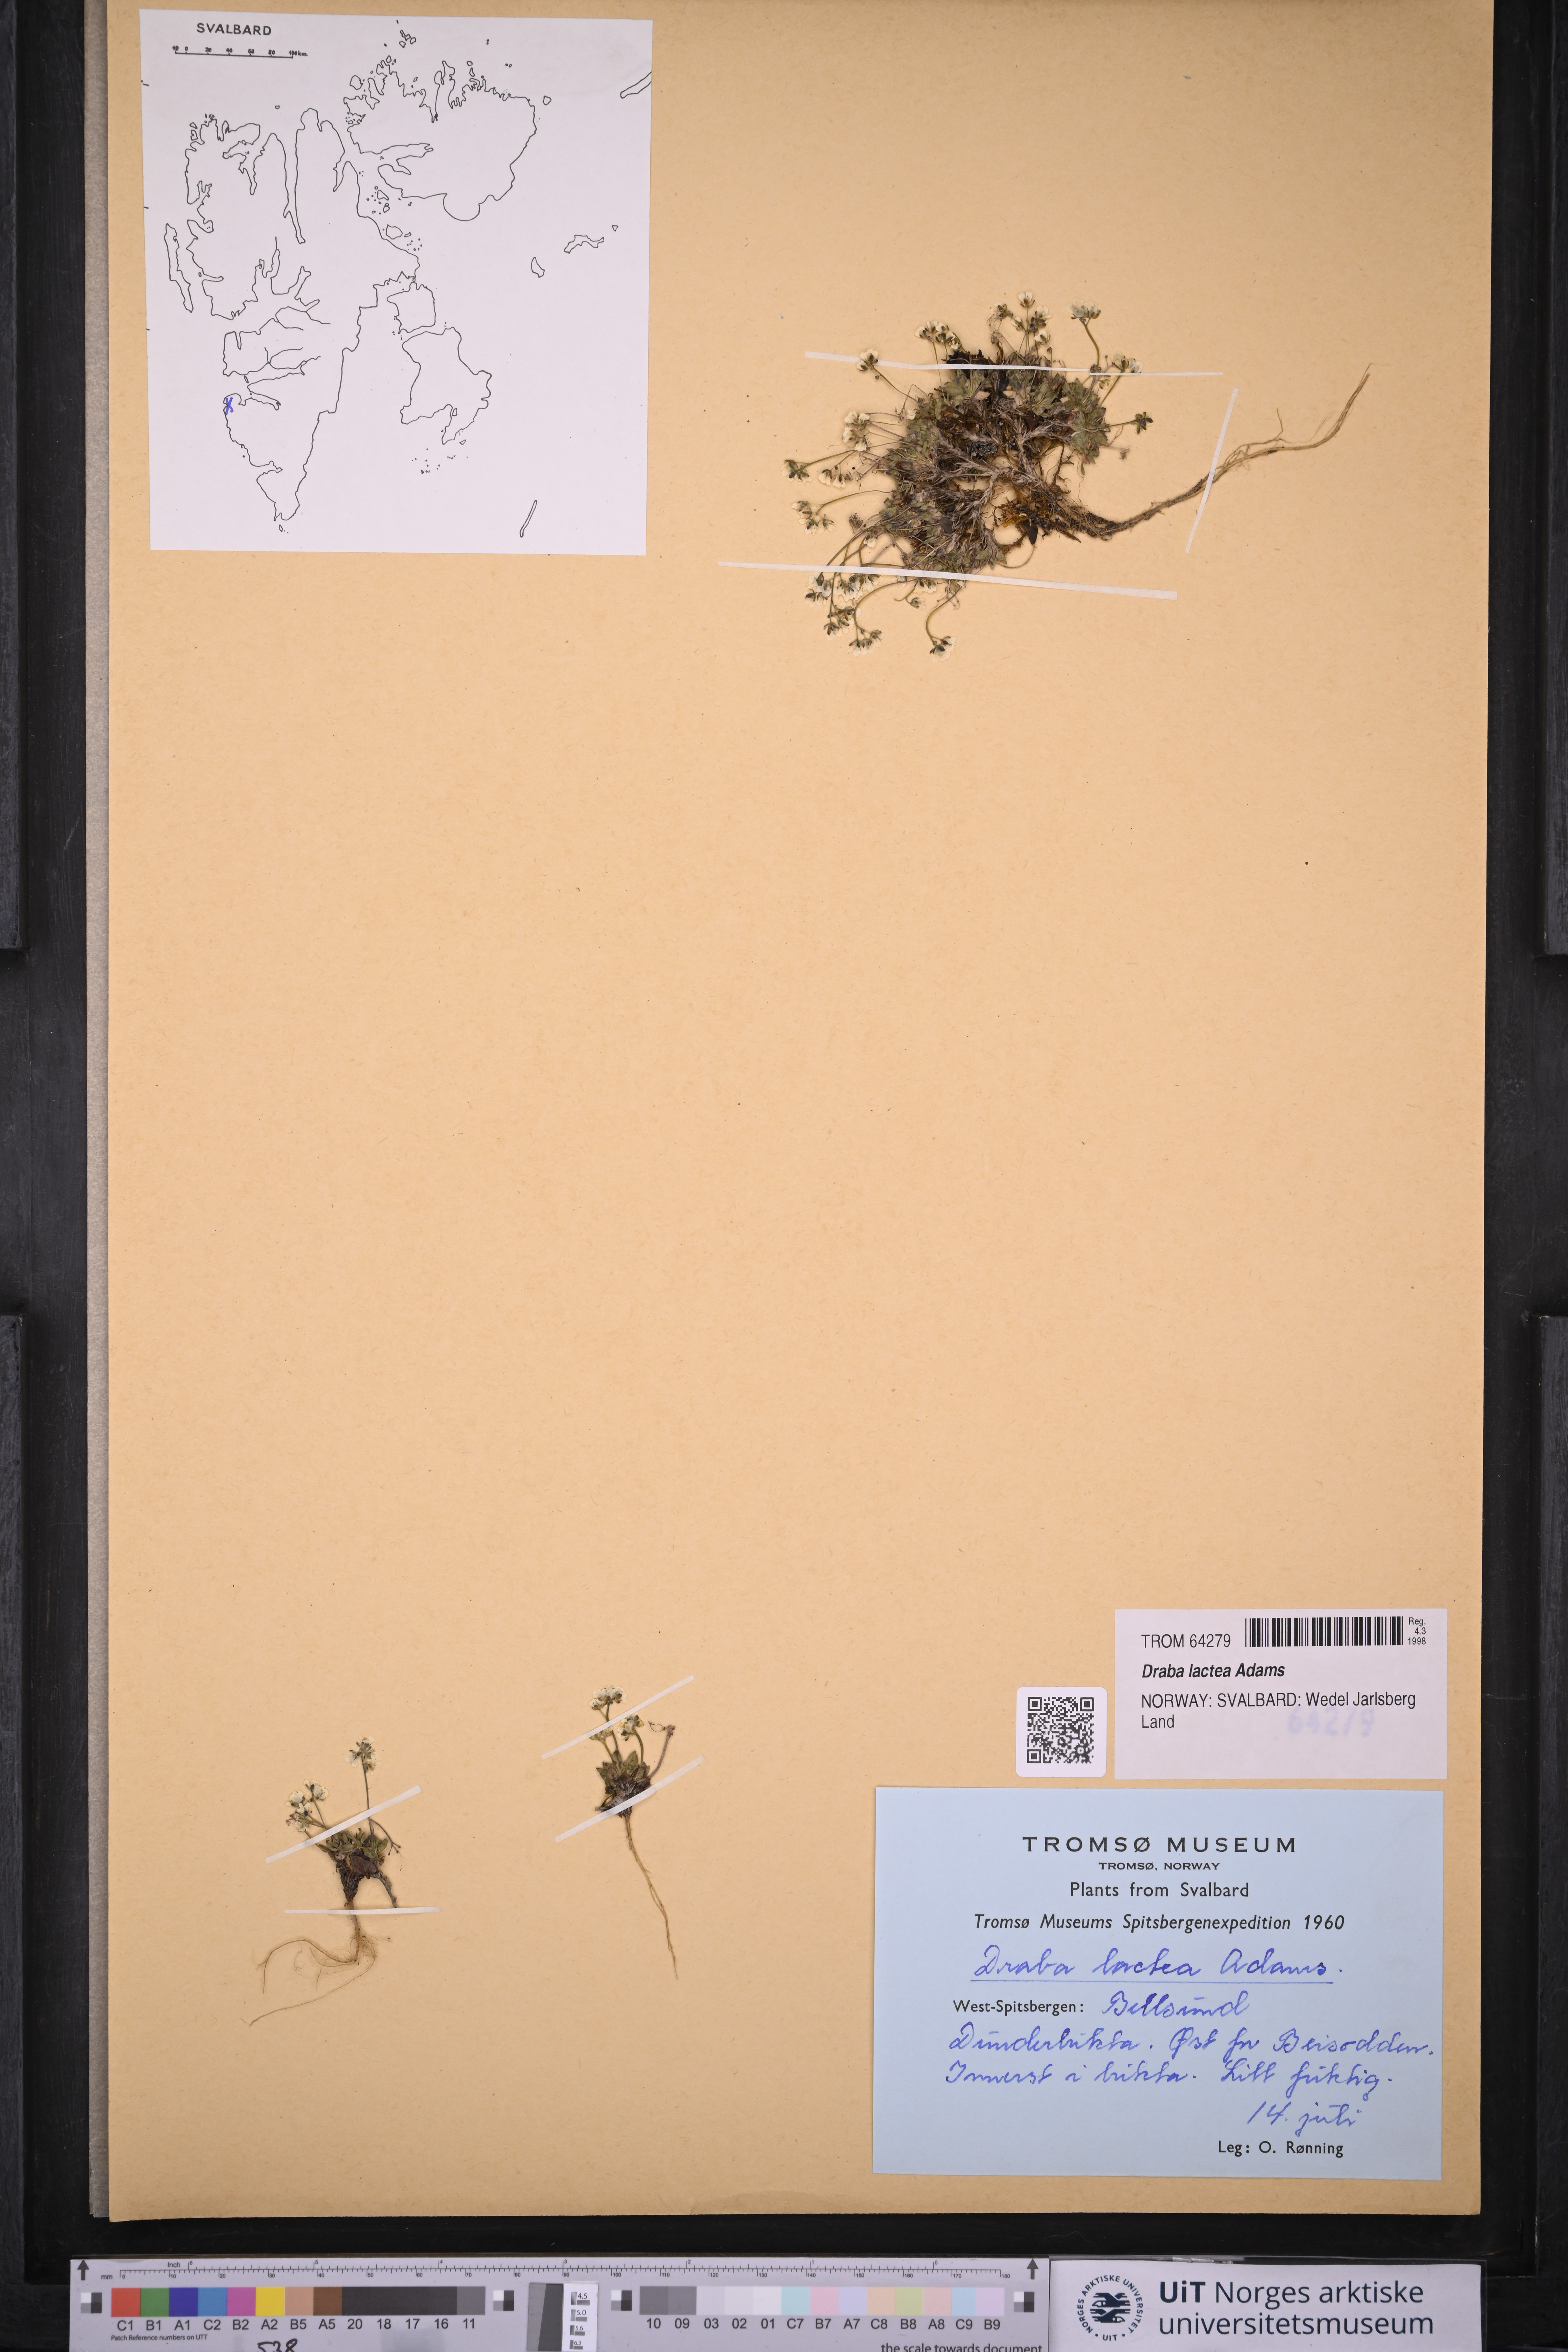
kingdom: Plantae
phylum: Tracheophyta
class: Magnoliopsida
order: Brassicales
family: Brassicaceae
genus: Draba
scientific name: Draba lactea
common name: Milky draba
